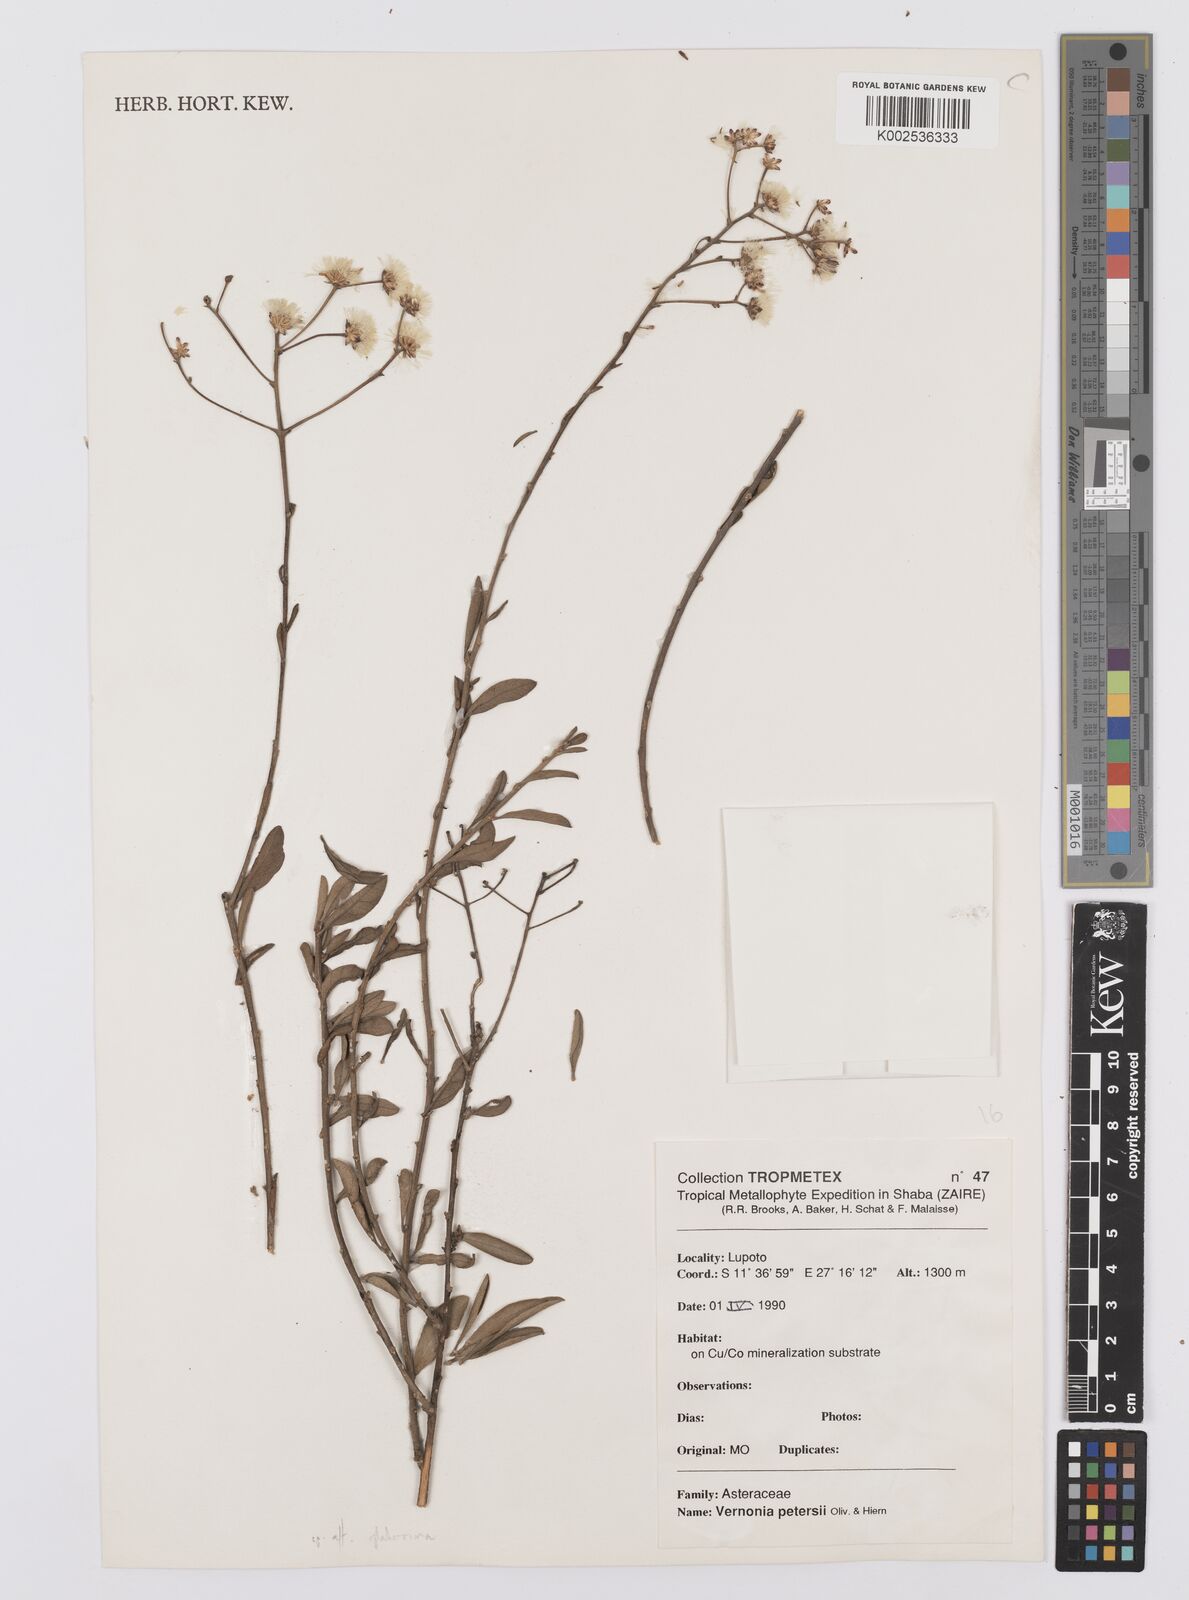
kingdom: Plantae
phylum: Tracheophyta
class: Magnoliopsida
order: Asterales
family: Asteraceae
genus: Vernoniastrum
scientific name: Vernoniastrum latifolium
